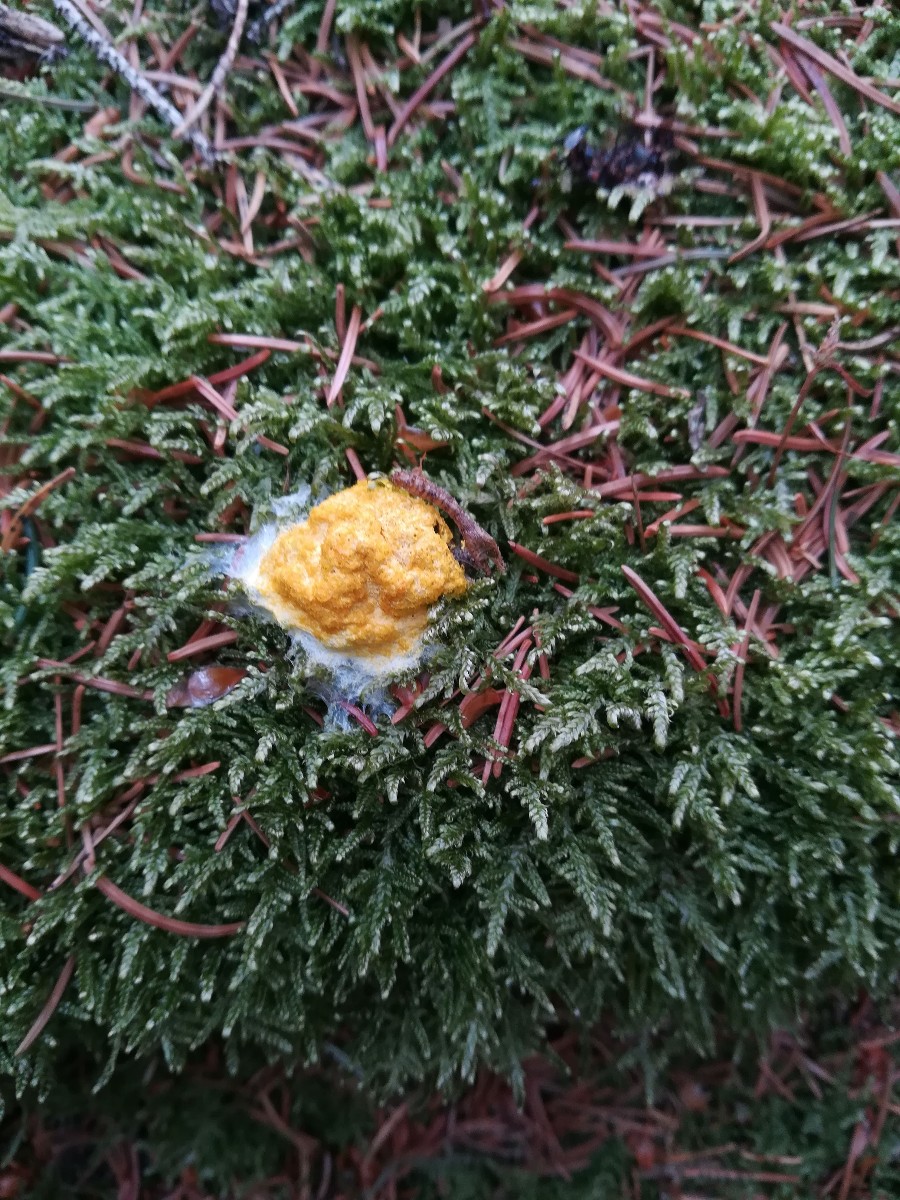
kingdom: Protozoa
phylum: Mycetozoa
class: Myxomycetes
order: Physarales
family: Physaraceae
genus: Fuligo
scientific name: Fuligo septica
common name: gul troldsmør
